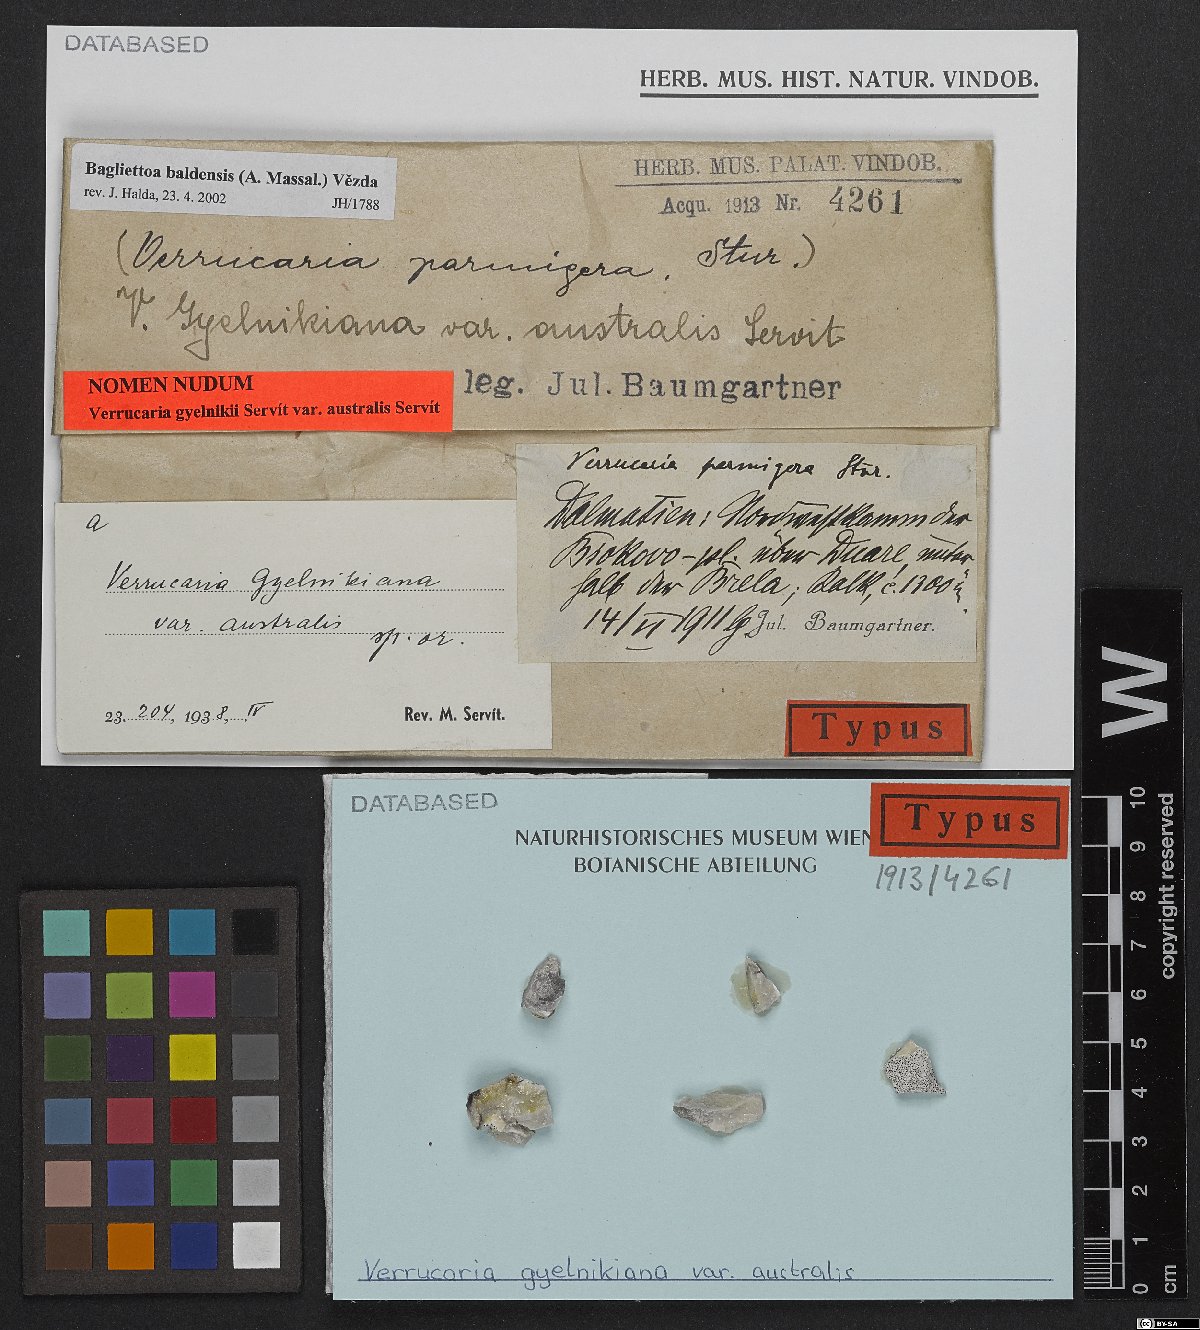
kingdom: Fungi
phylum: Ascomycota
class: Eurotiomycetes
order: Verrucariales
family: Verrucariaceae
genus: Bagliettoa
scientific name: Bagliettoa parmigera
